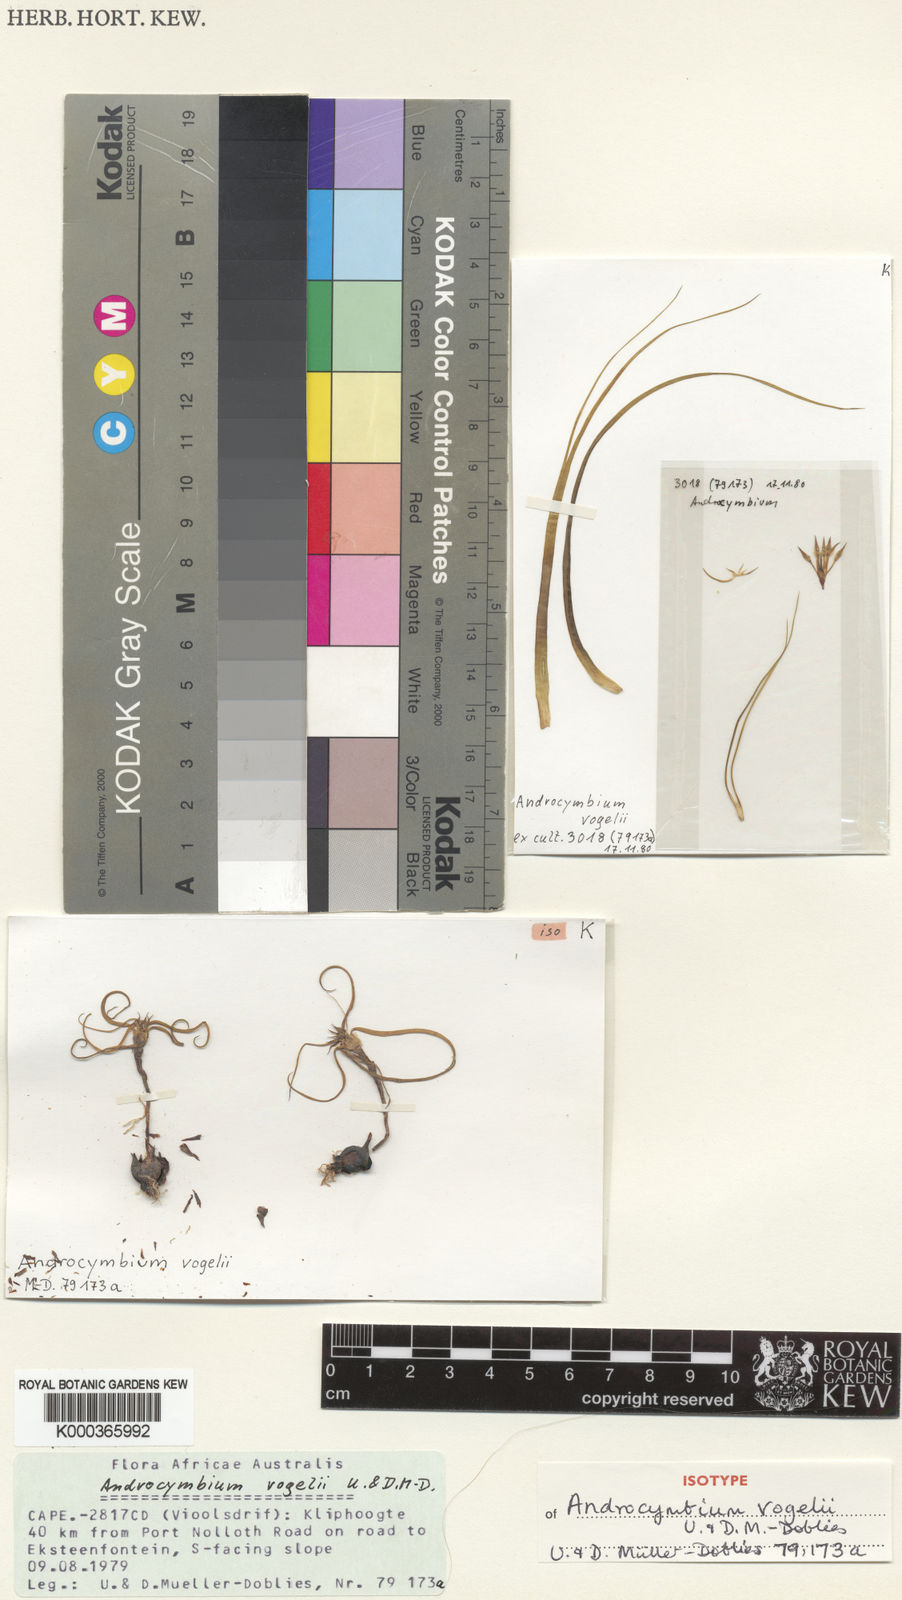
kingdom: Plantae
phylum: Tracheophyta
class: Liliopsida
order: Liliales
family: Colchicaceae
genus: Colchicum
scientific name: Colchicum
